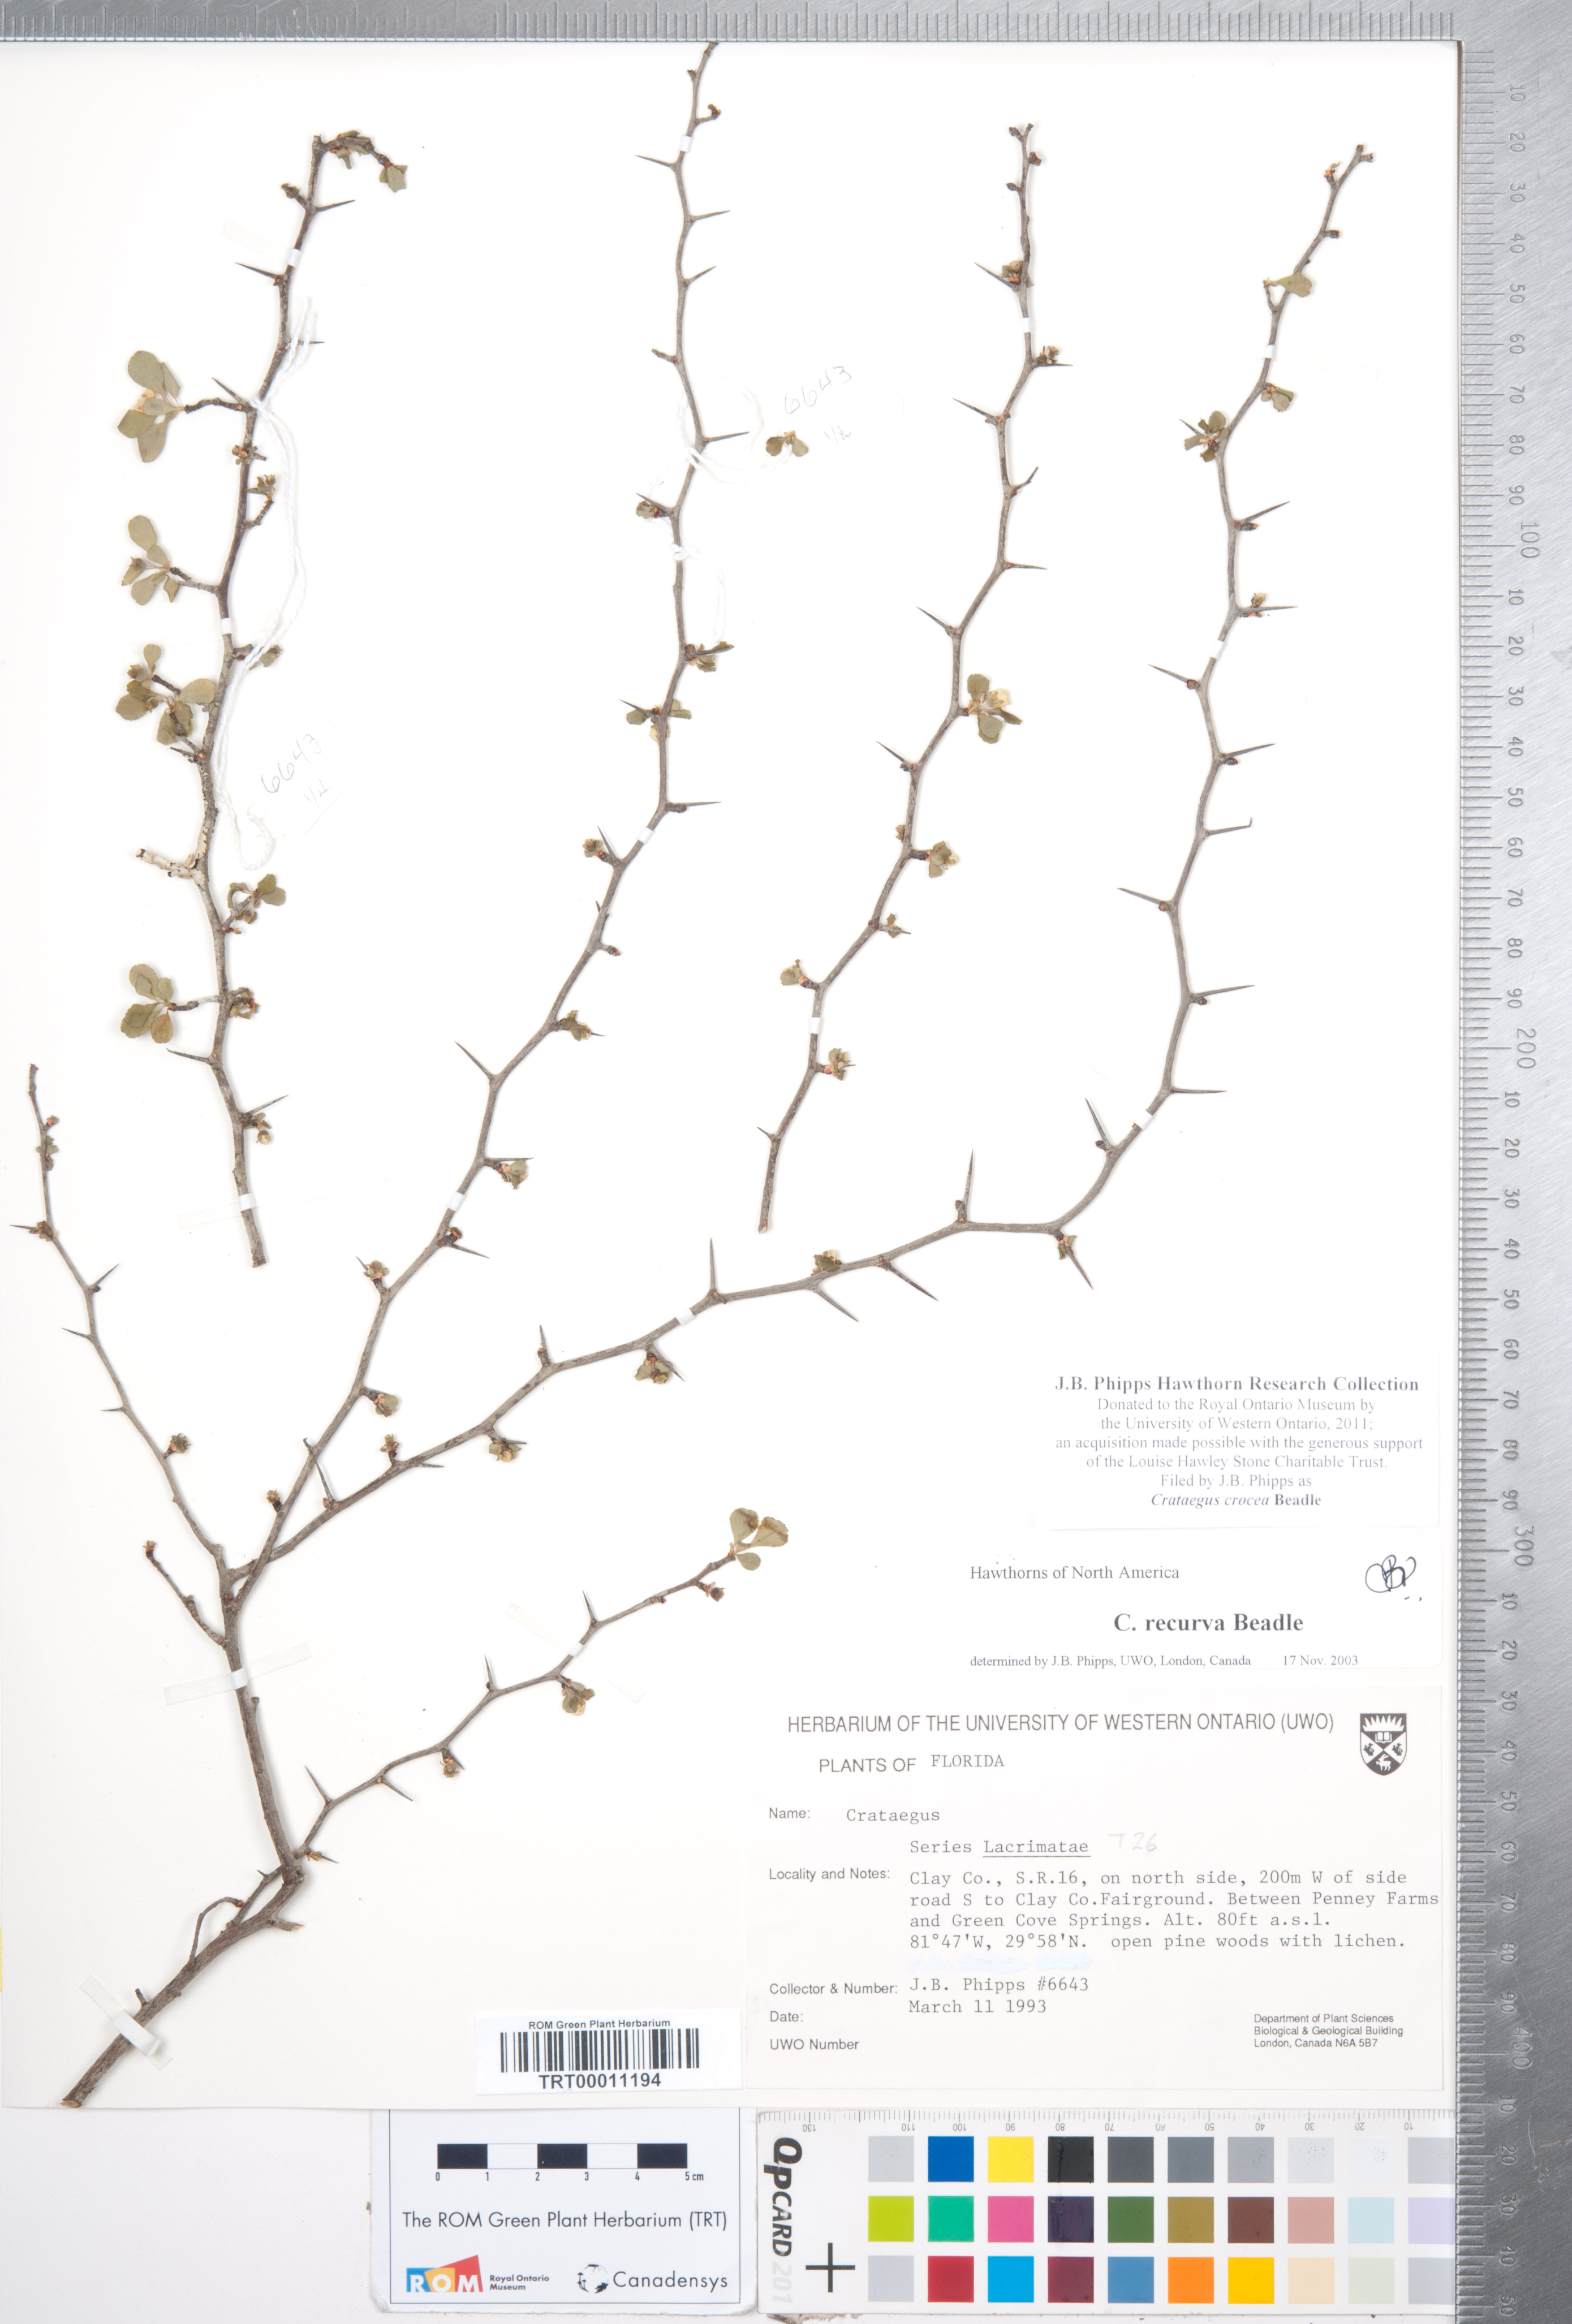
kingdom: Plantae
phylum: Tracheophyta
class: Magnoliopsida
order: Rosales
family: Rosaceae
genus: Crataegus
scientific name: Crataegus lassa
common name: Florida hawthorn
